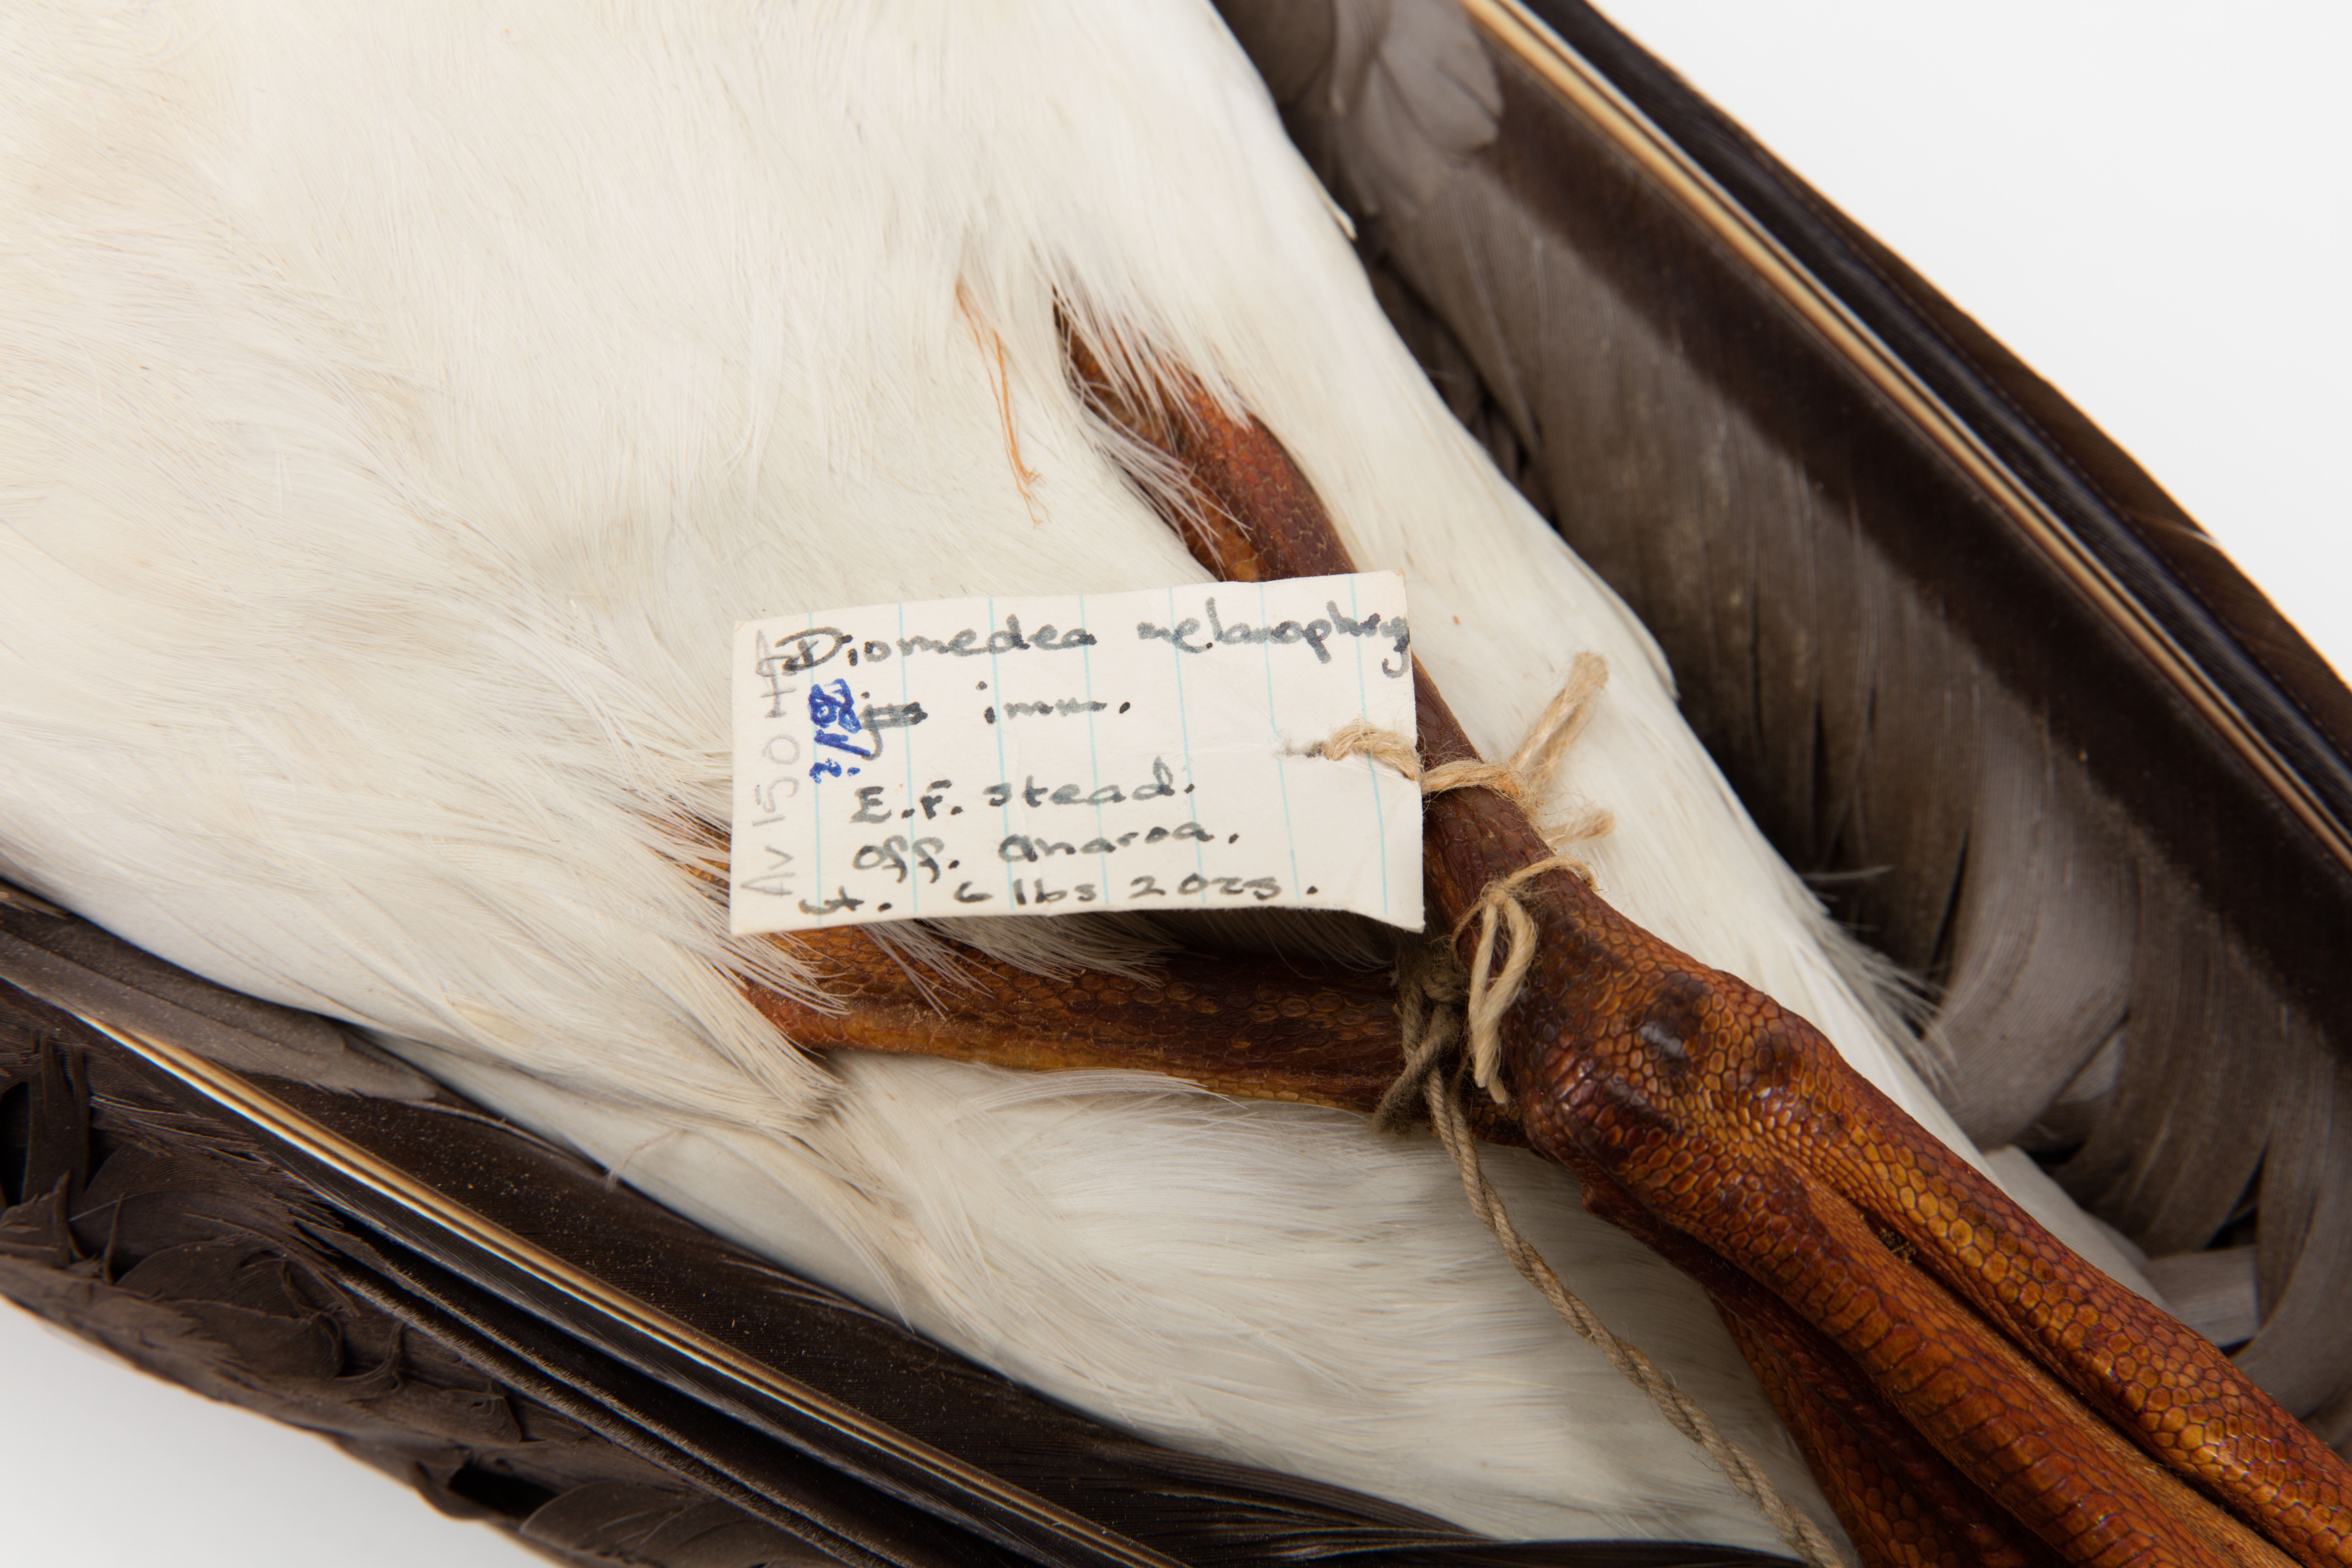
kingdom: Animalia
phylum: Chordata
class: Aves
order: Procellariiformes
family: Diomedeidae
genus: Thalassarche
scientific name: Thalassarche melanophris
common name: Black-browed albatross
